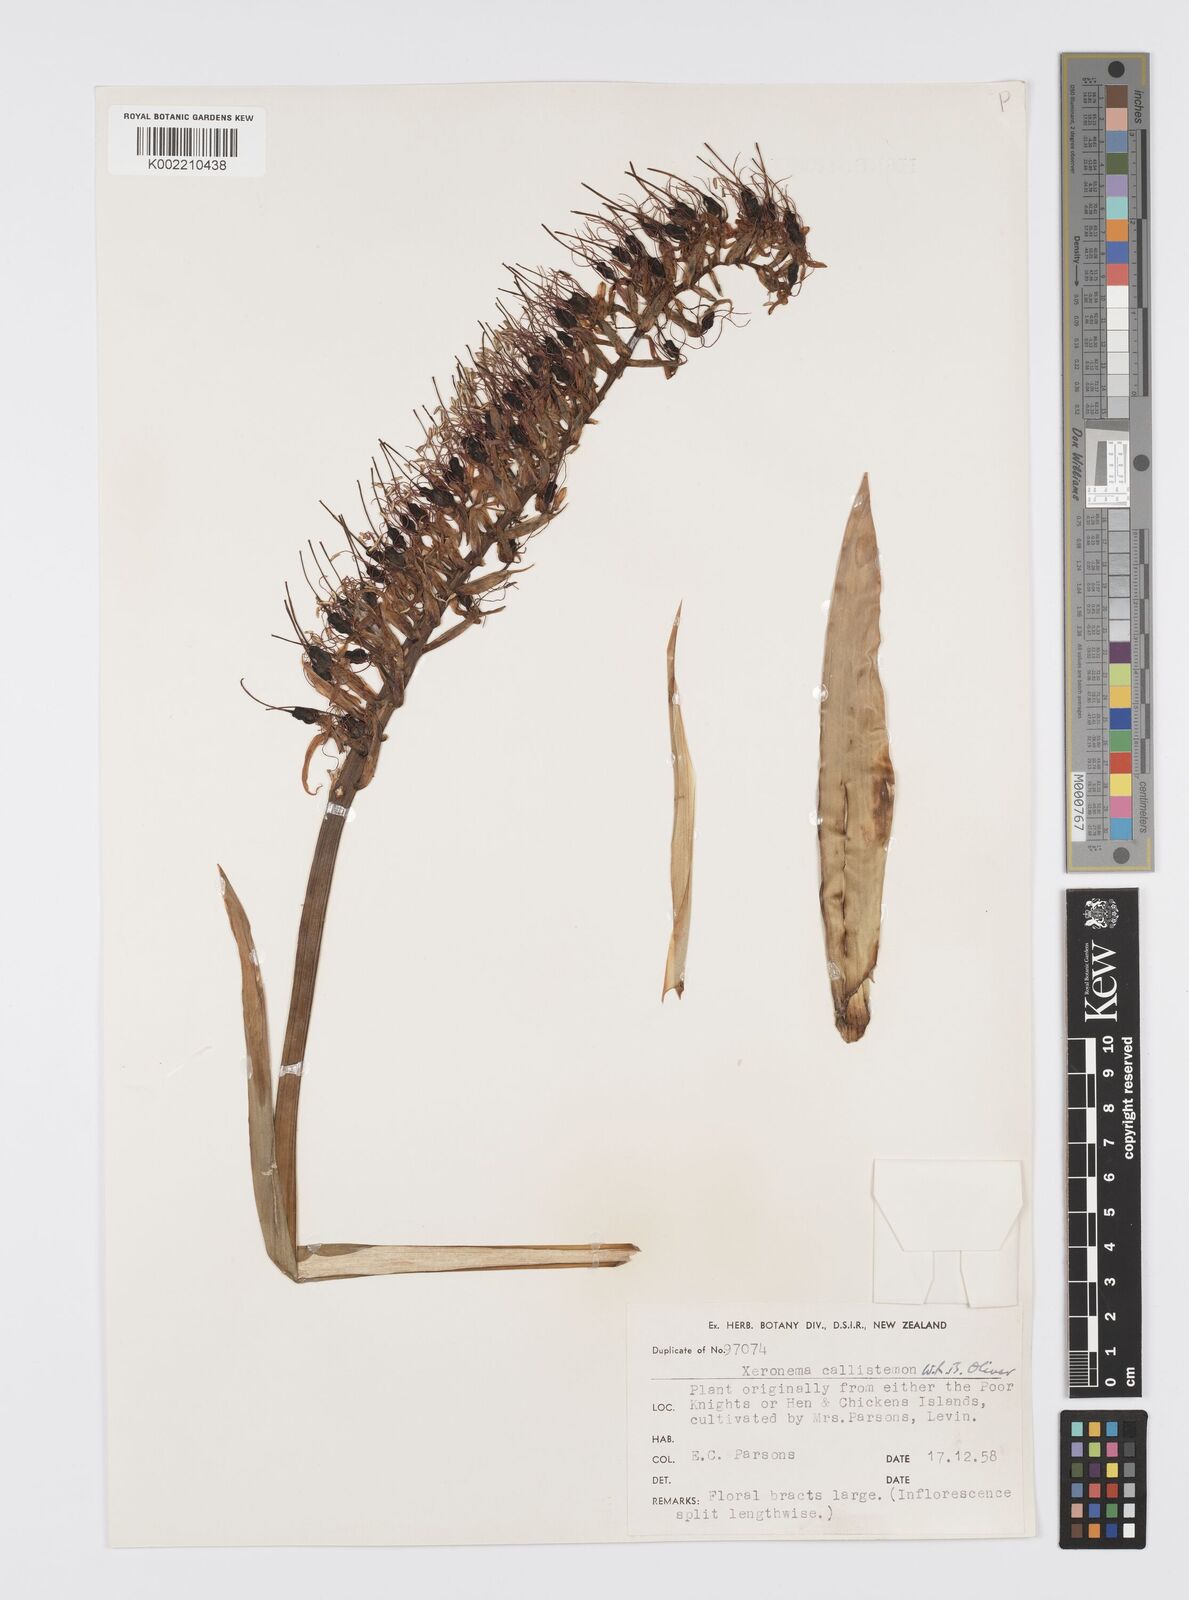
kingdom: Plantae
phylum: Tracheophyta
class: Liliopsida
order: Asparagales
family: Xeronemataceae
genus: Xeronema
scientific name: Xeronema callistemon
